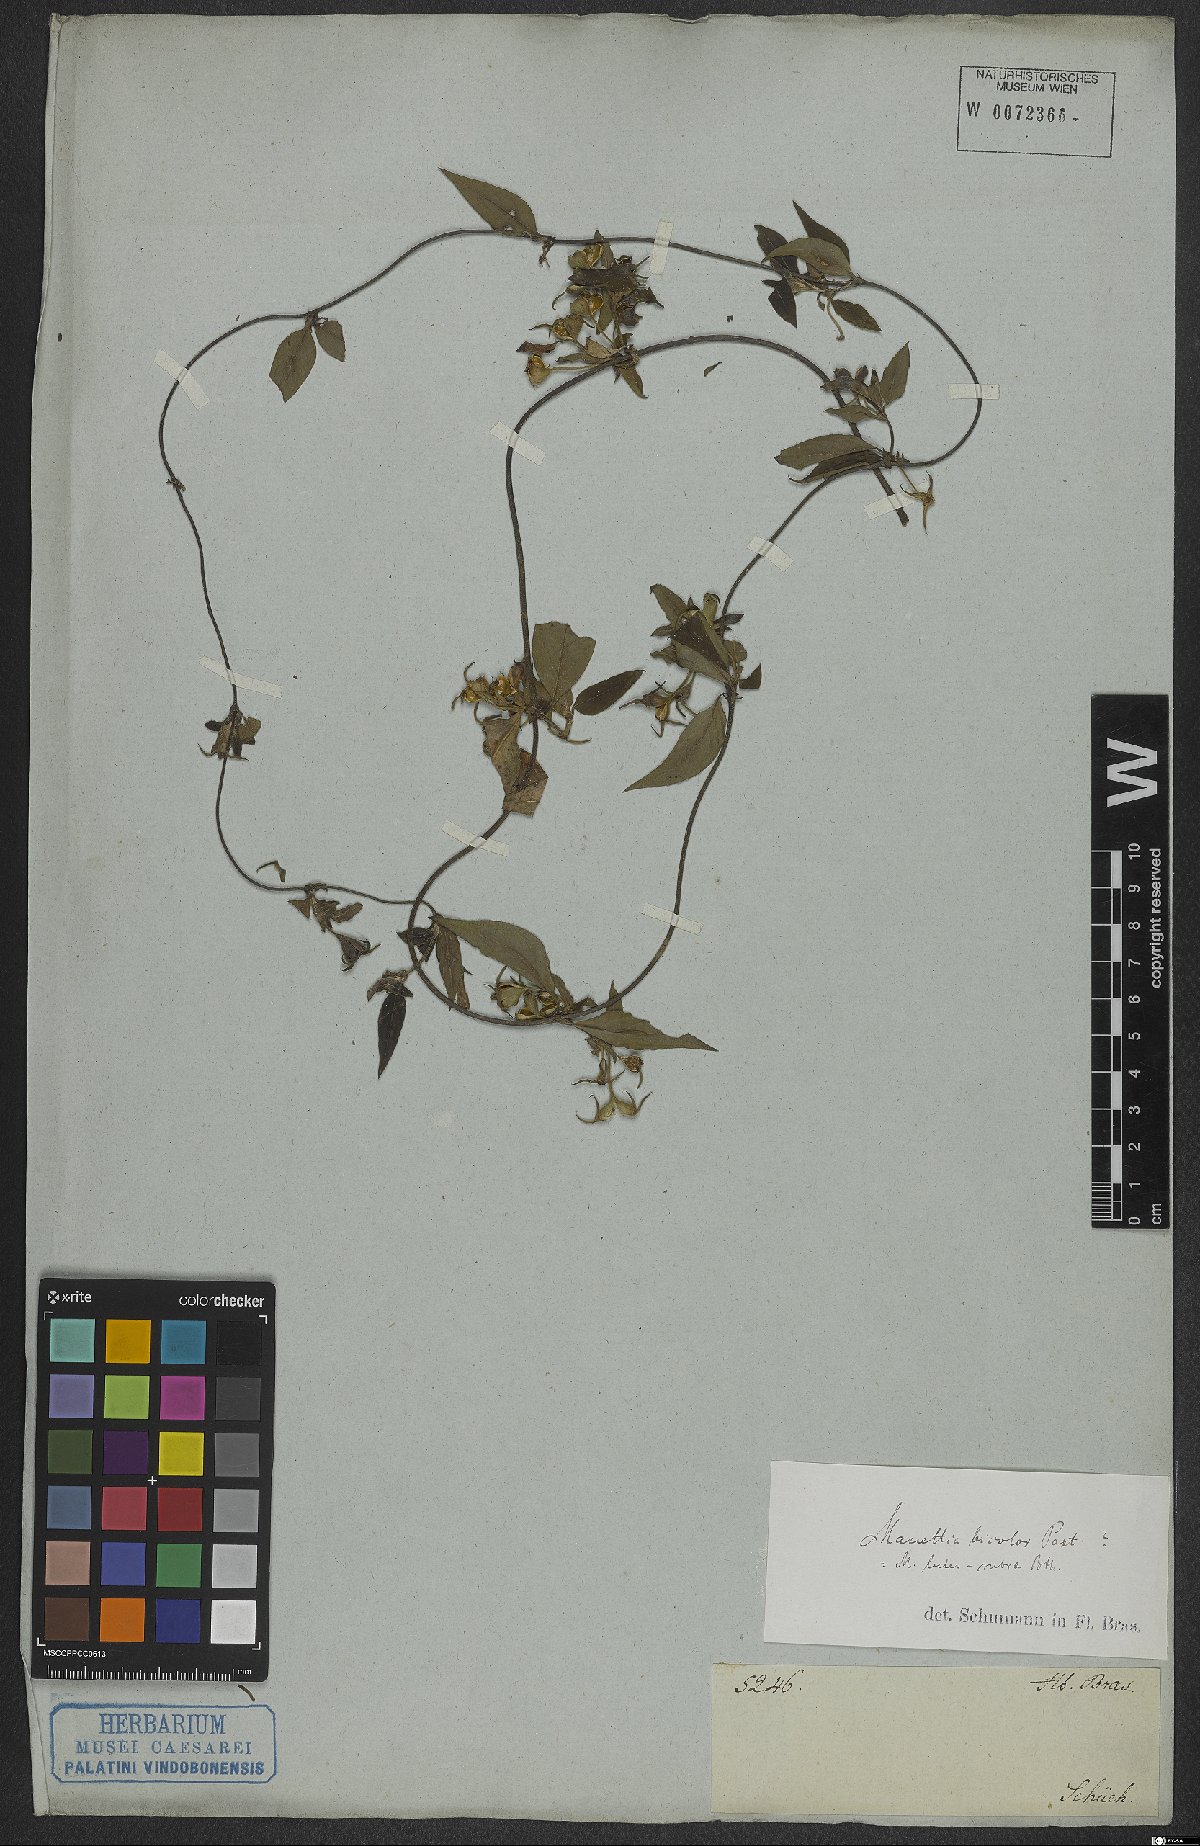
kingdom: Plantae
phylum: Tracheophyta
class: Magnoliopsida
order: Gentianales
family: Rubiaceae
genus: Manettia
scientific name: Manettia luteorubra
